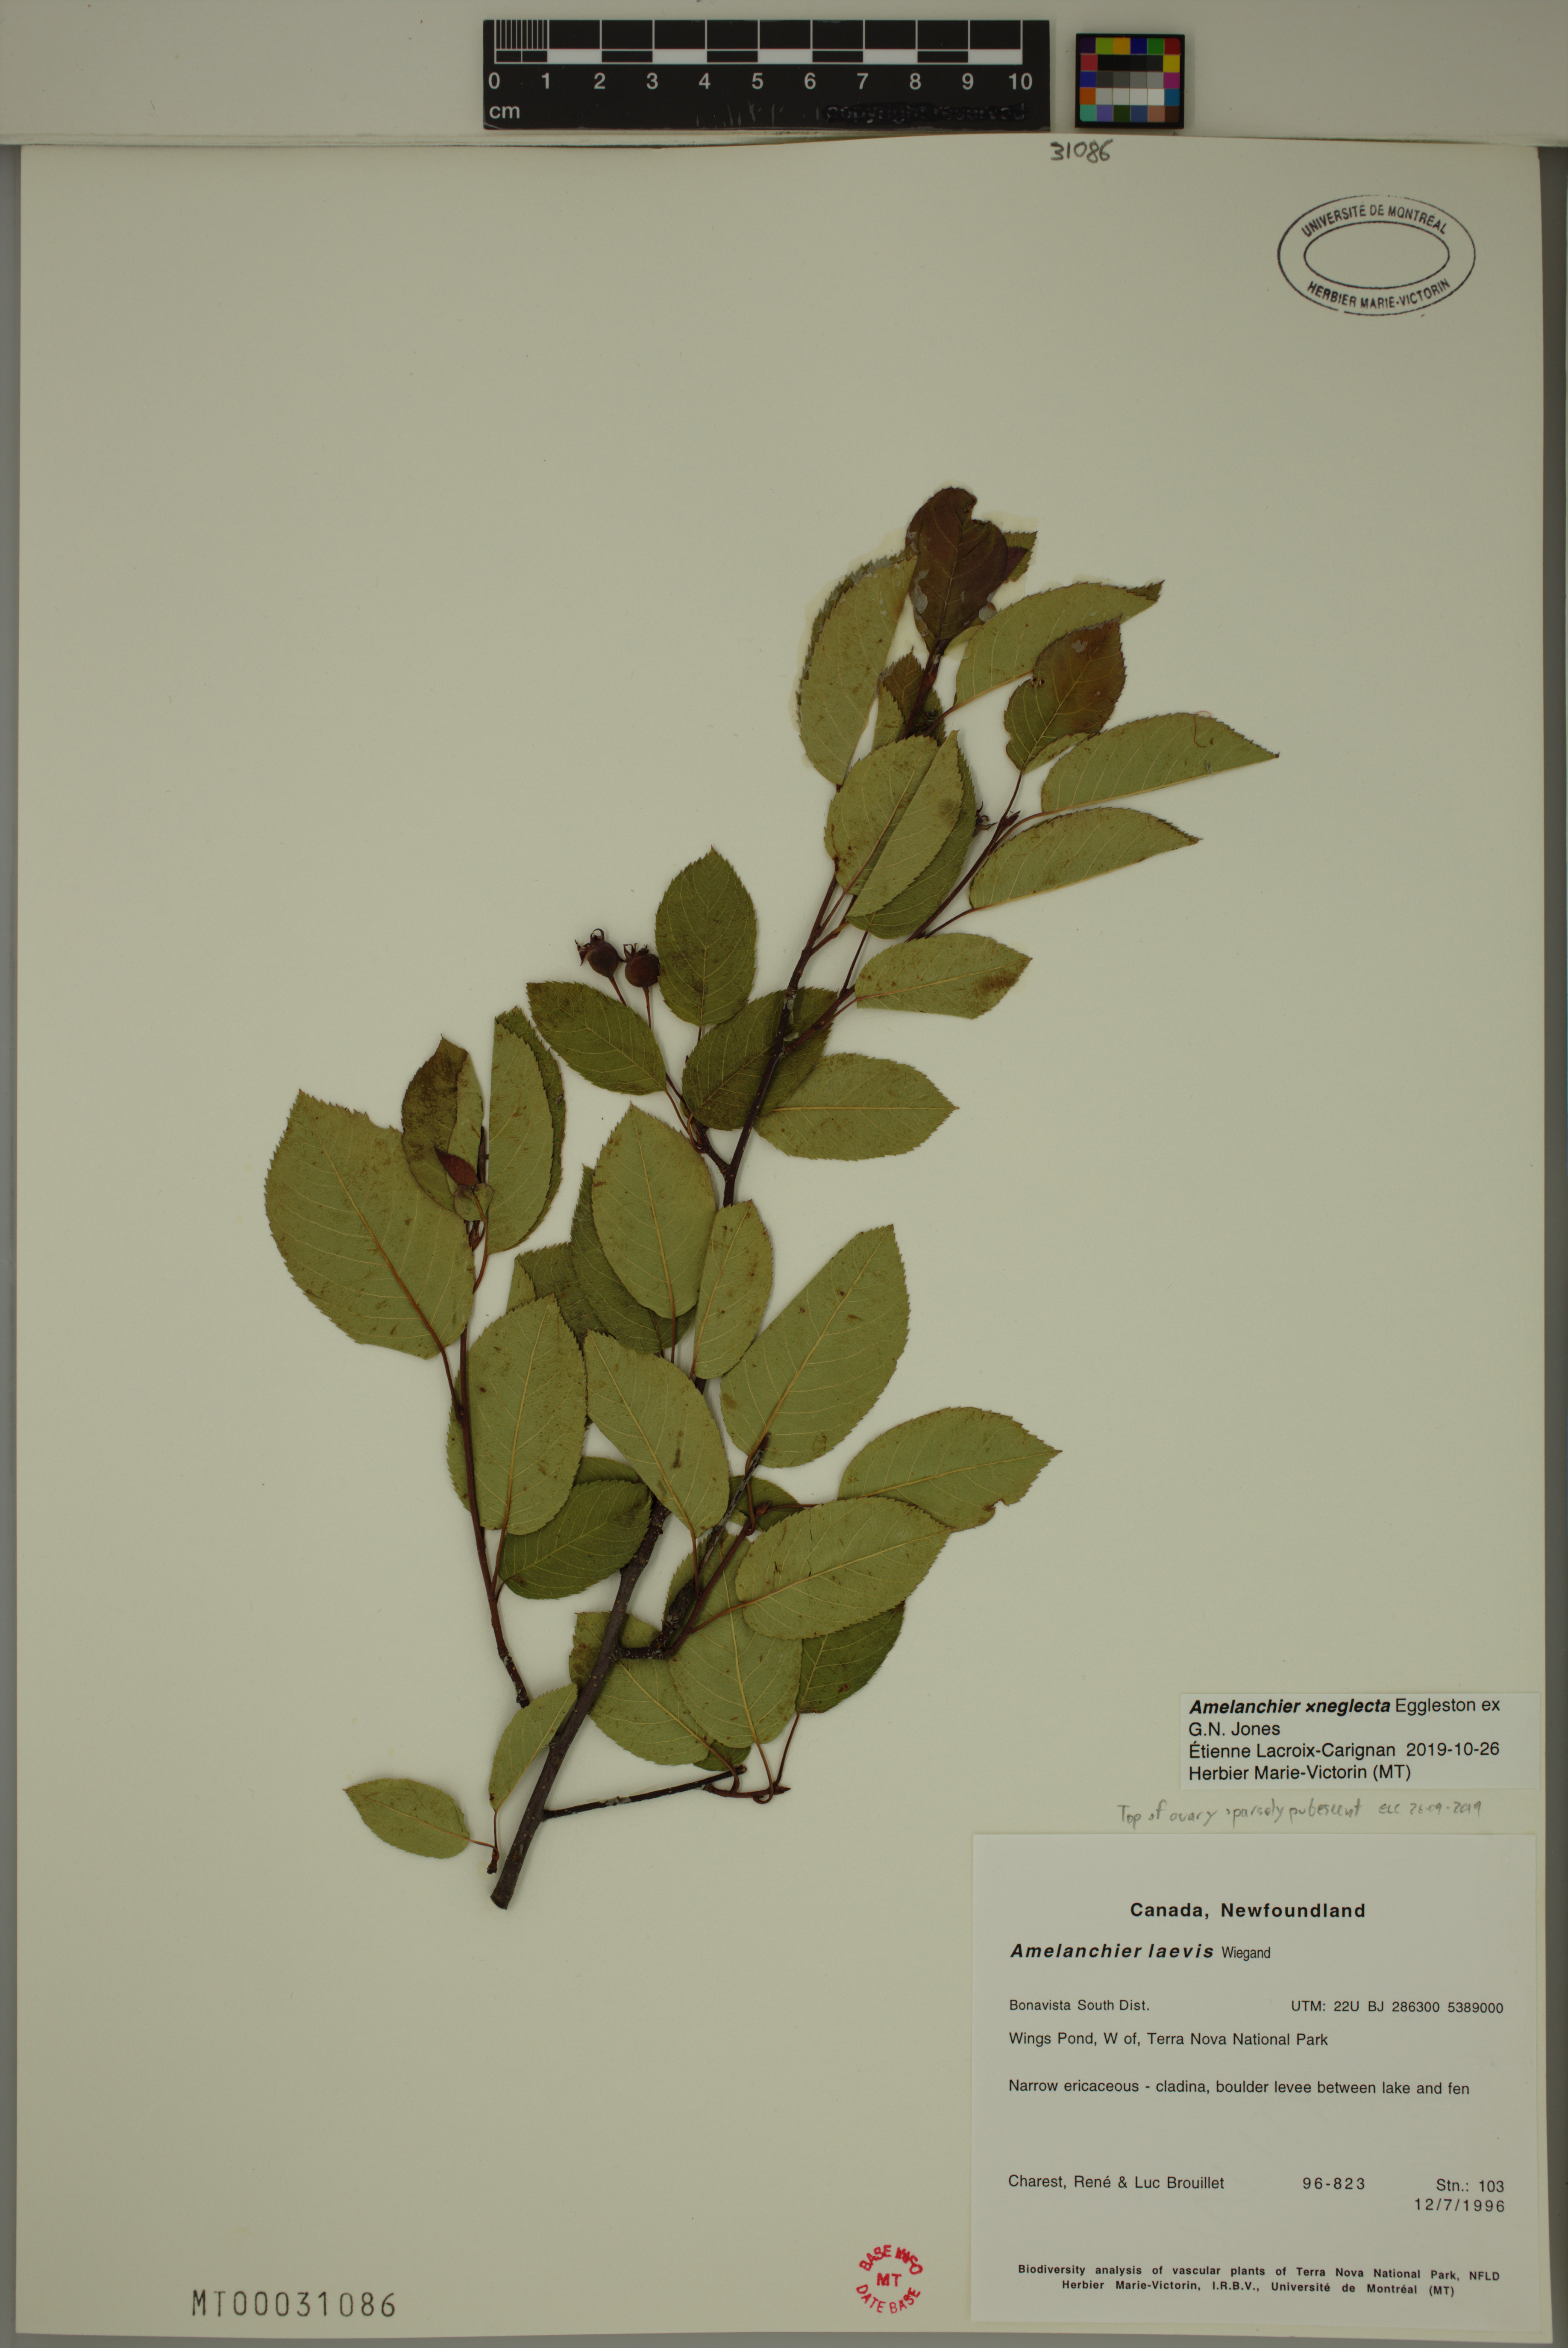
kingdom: Plantae
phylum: Tracheophyta
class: Magnoliopsida
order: Rosales
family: Rosaceae
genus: Amelanchier
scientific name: Amelanchier neglecta
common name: Overlooked serviceberry
